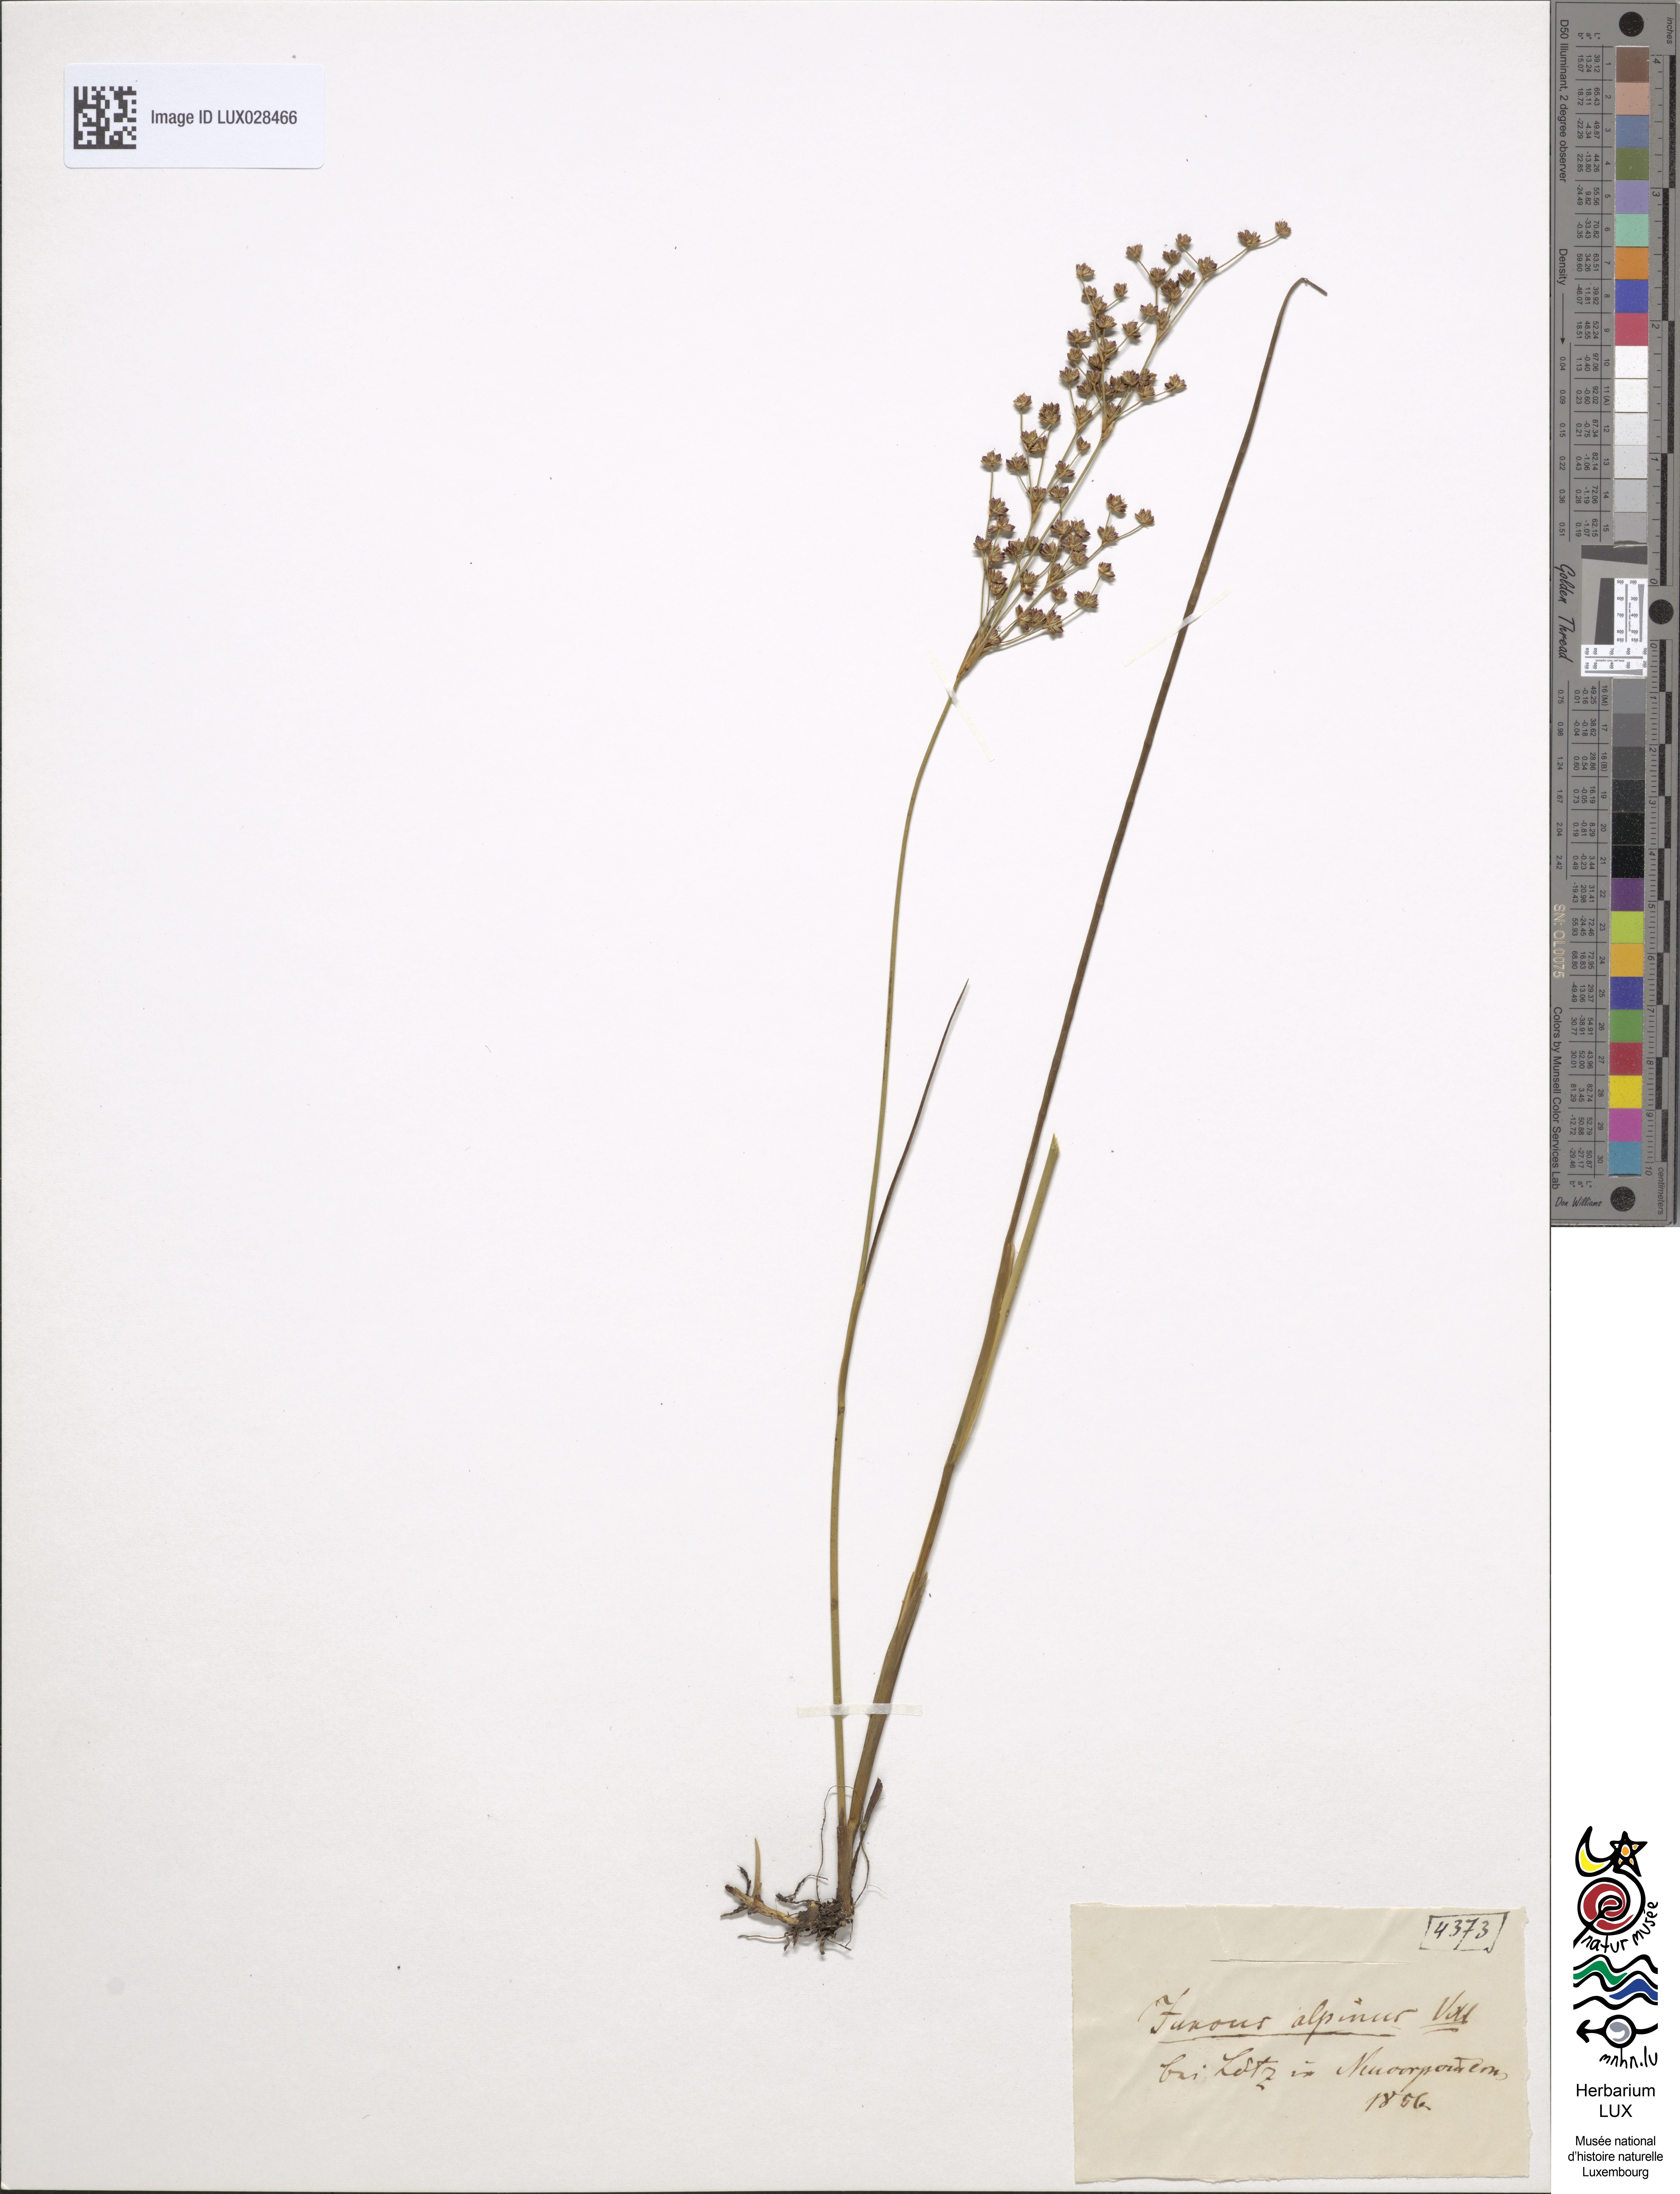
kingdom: Plantae
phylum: Tracheophyta
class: Liliopsida
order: Poales
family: Juncaceae
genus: Juncus
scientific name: Juncus alpinoarticulatus
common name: Alpine rush
